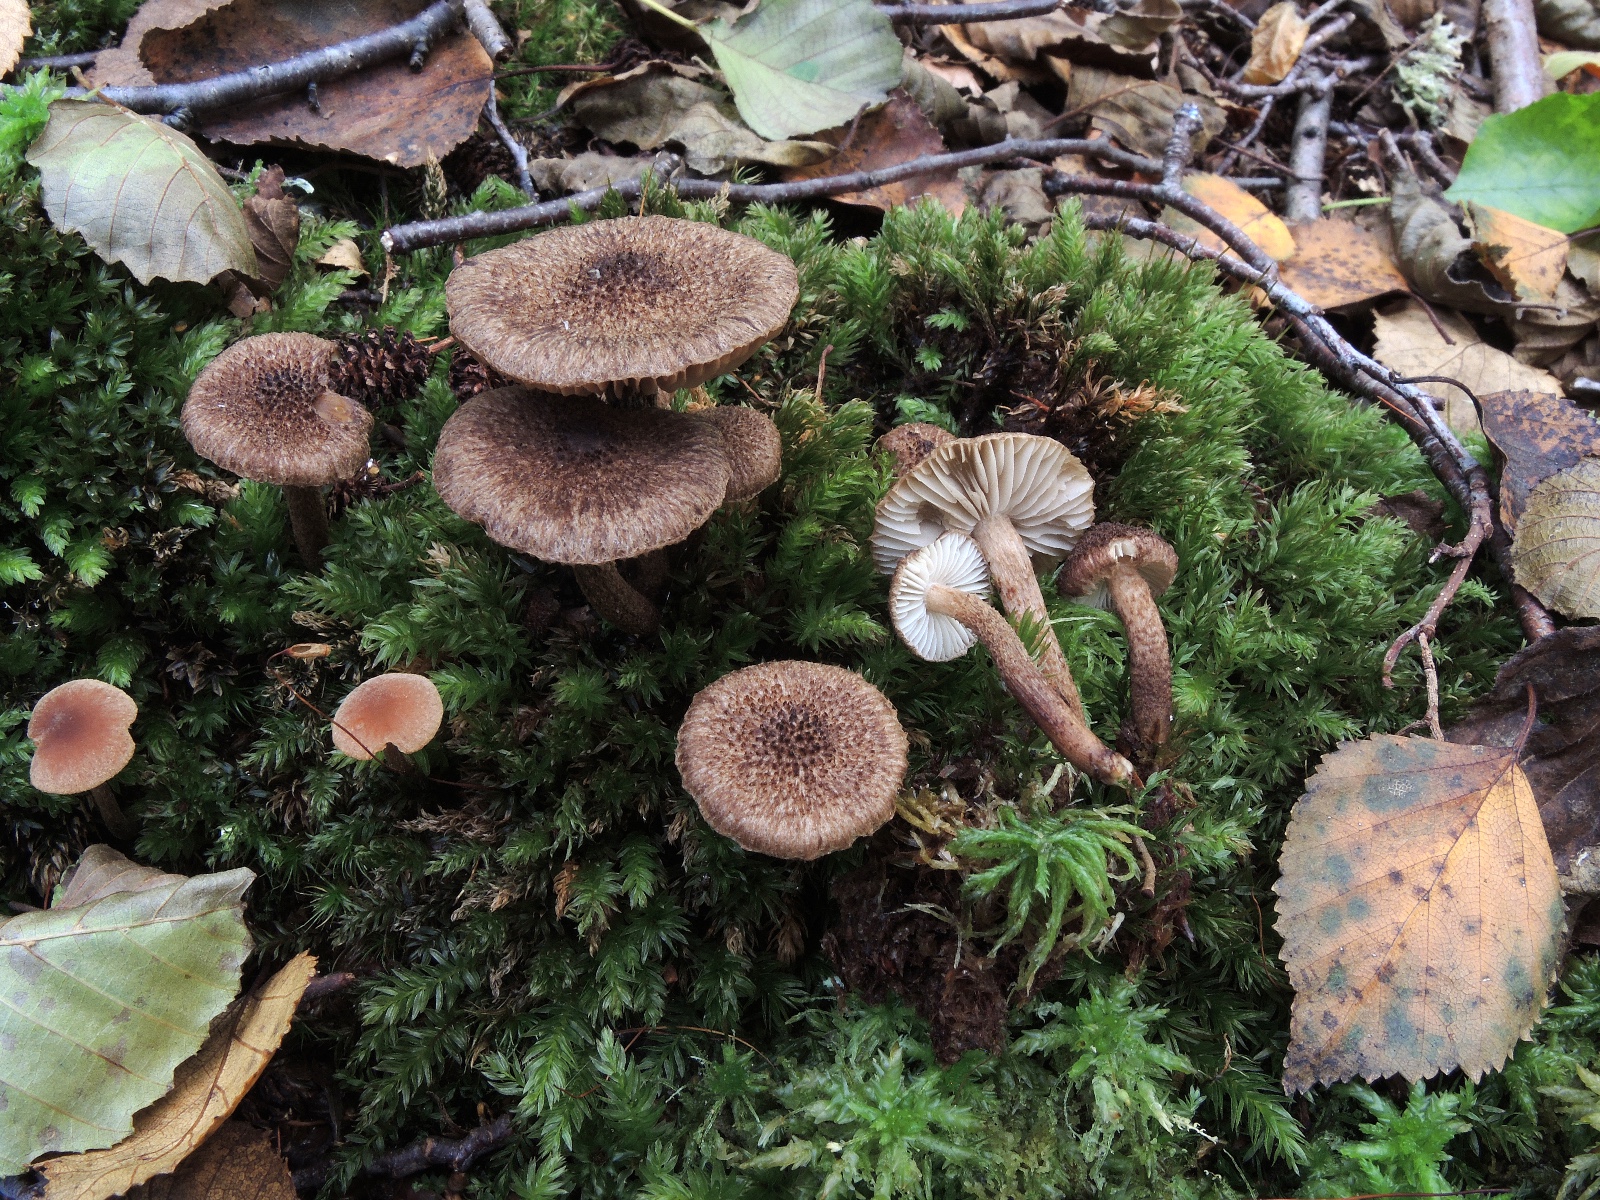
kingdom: Fungi
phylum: Basidiomycota
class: Agaricomycetes
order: Agaricales
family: Inocybaceae
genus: Inocybe
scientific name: Inocybe stellatospora
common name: spidsskællet trævlhat
